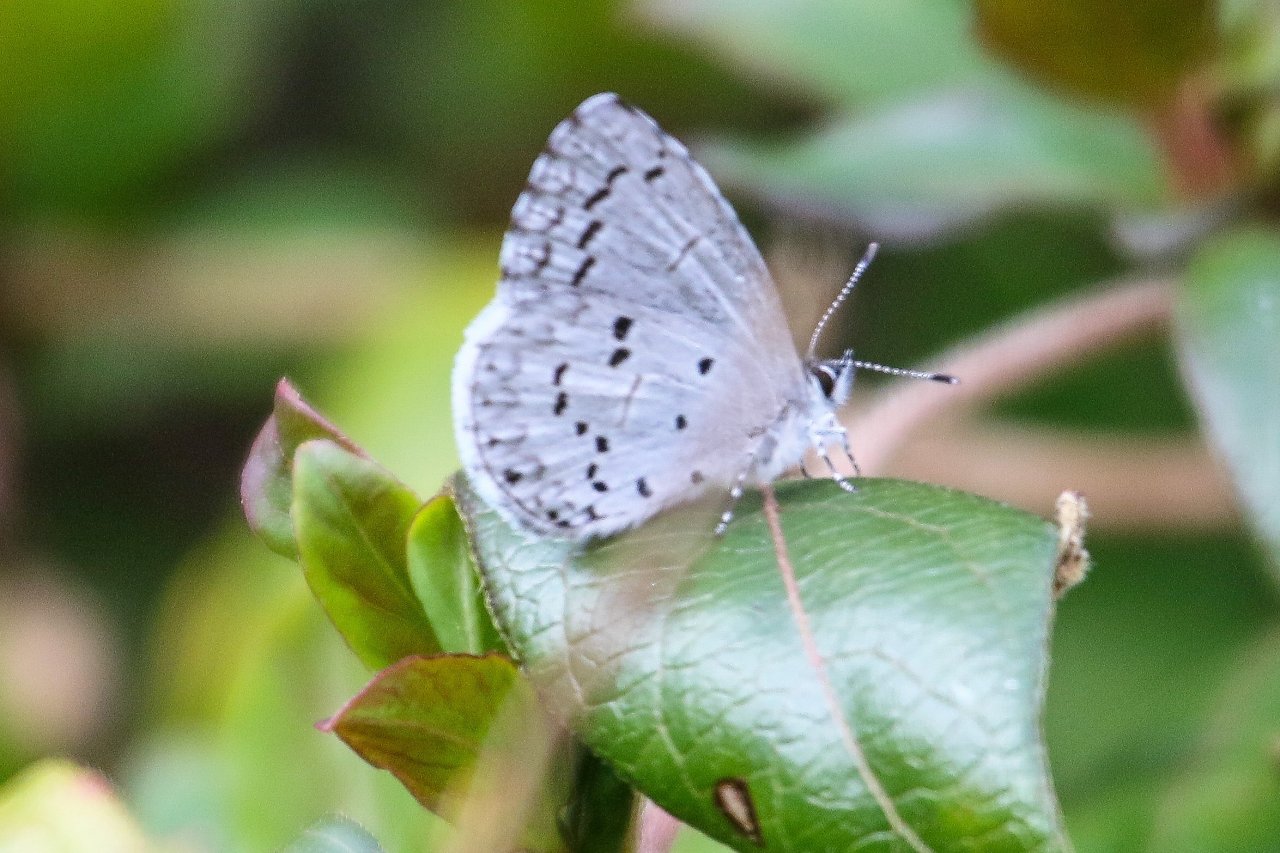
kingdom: Animalia
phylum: Arthropoda
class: Insecta
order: Lepidoptera
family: Lycaenidae
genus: Cyaniris
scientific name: Cyaniris neglecta
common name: Summer Azure
